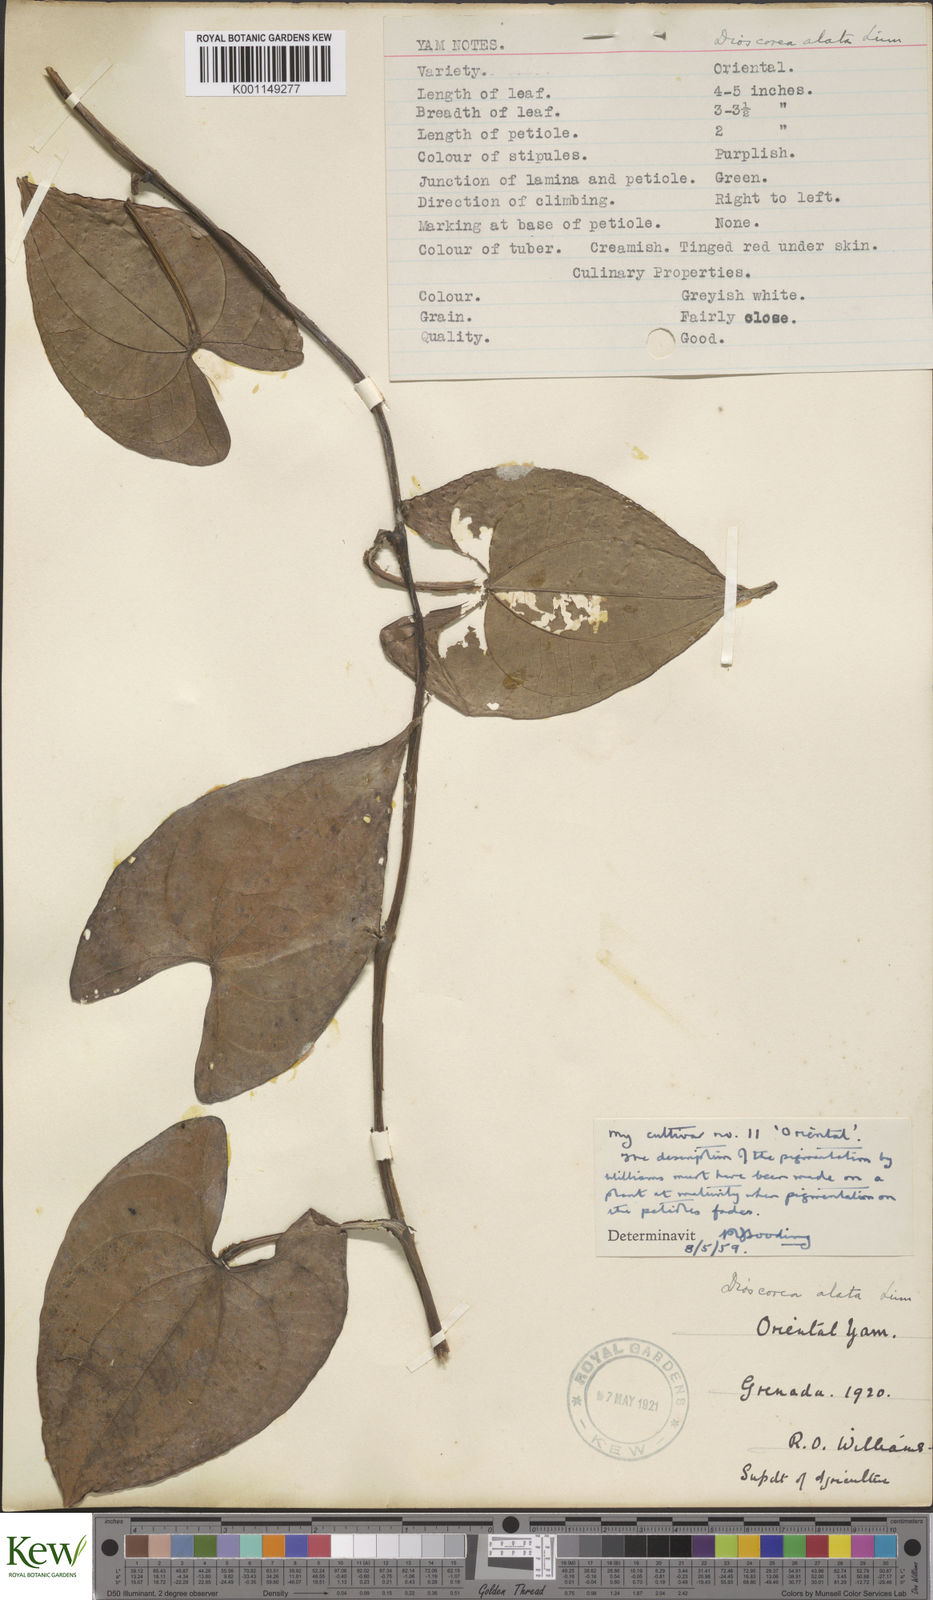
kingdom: Plantae
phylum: Tracheophyta
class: Liliopsida
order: Dioscoreales
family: Dioscoreaceae
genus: Dioscorea
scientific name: Dioscorea alata
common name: Water yam
